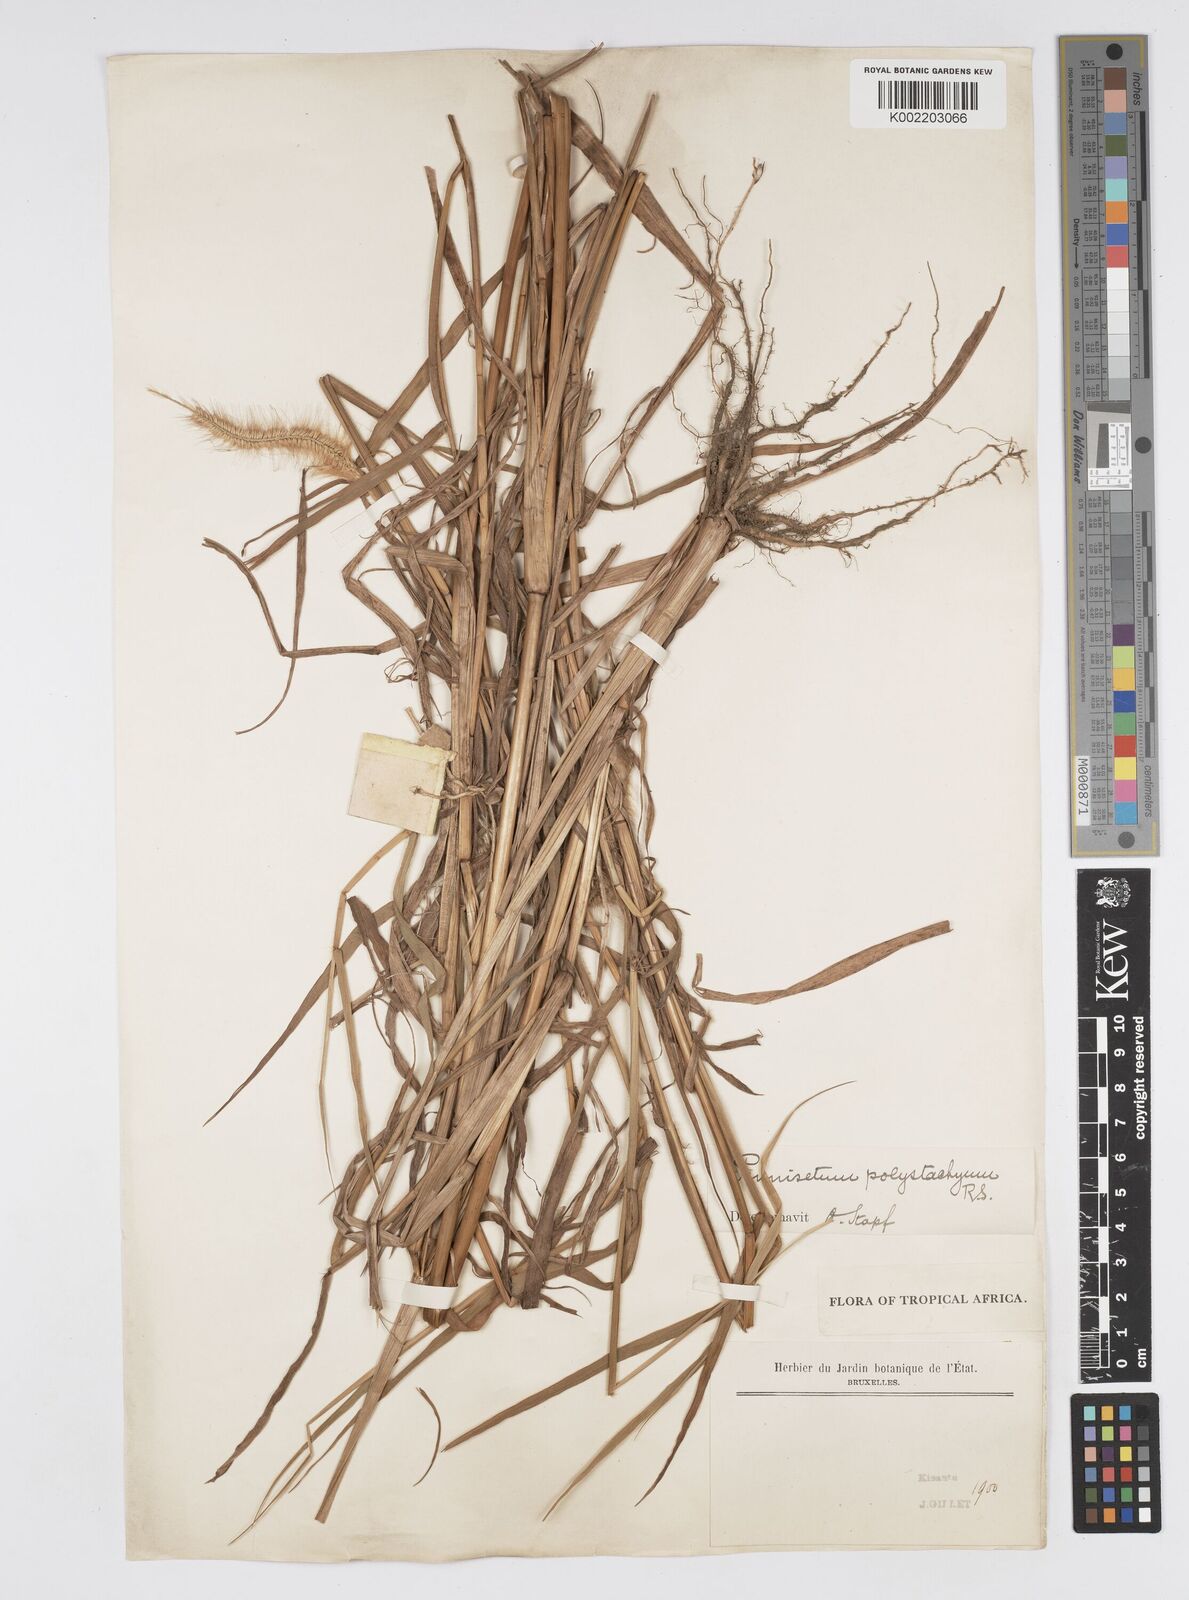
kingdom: Plantae
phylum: Tracheophyta
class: Liliopsida
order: Poales
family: Poaceae
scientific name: Poaceae
